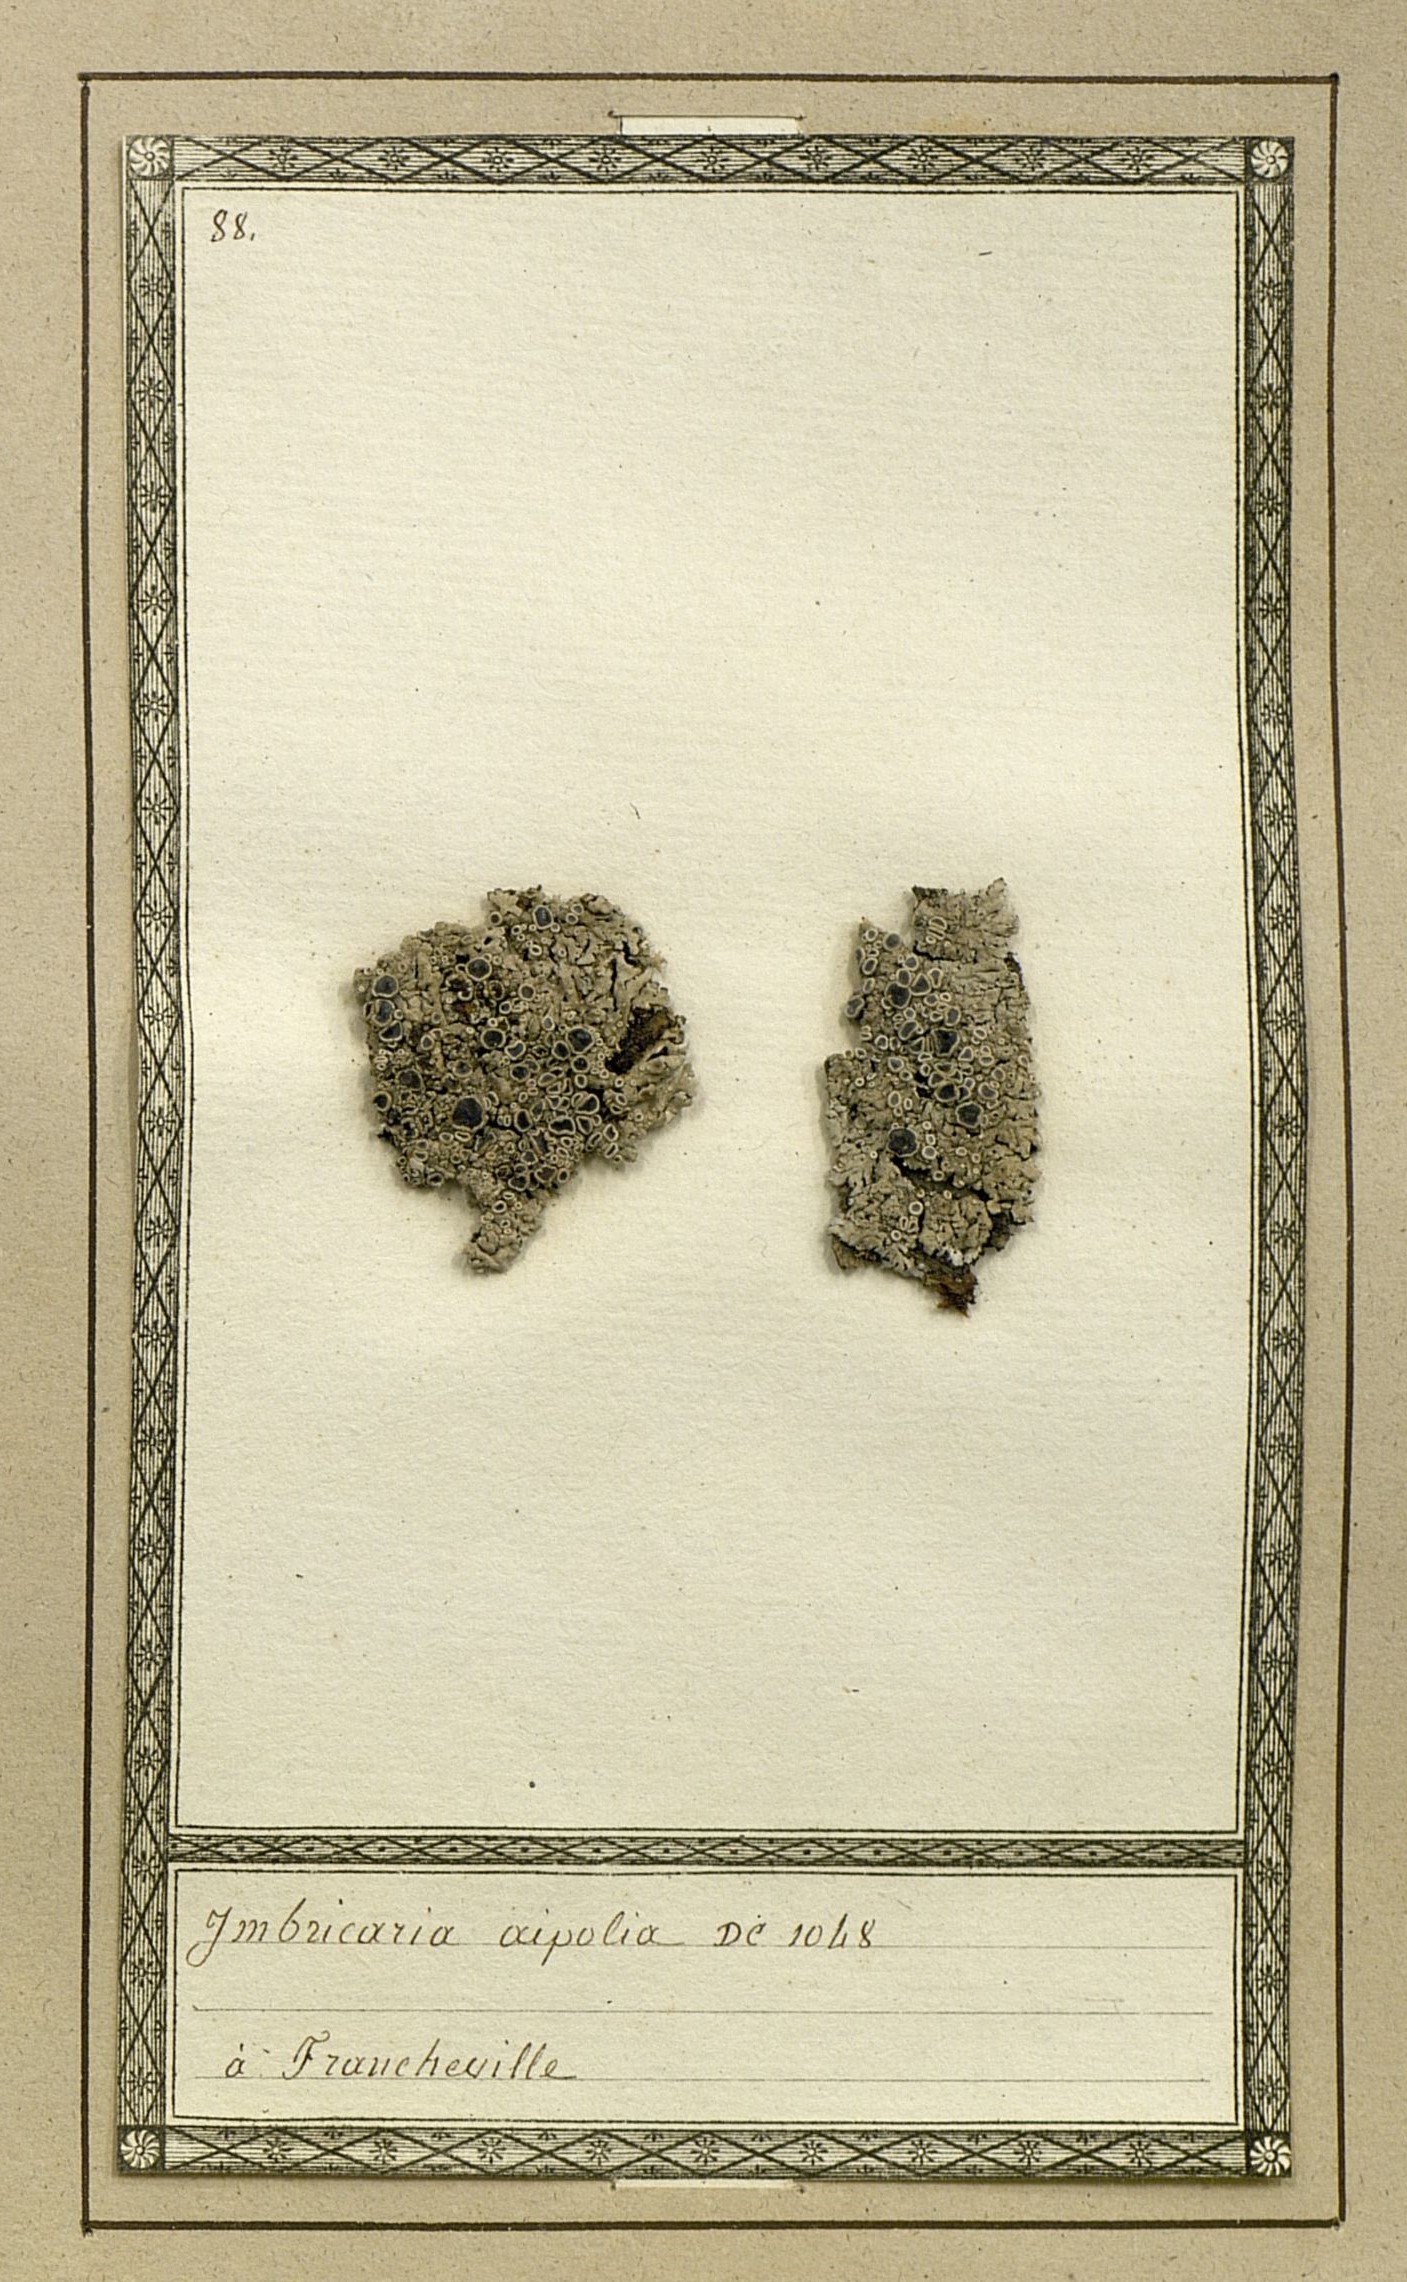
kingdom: Fungi
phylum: Ascomycota
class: Lecanoromycetes
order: Caliciales
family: Physciaceae
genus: Physcia
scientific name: Physcia aipolia
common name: Hoary rosette lichen
